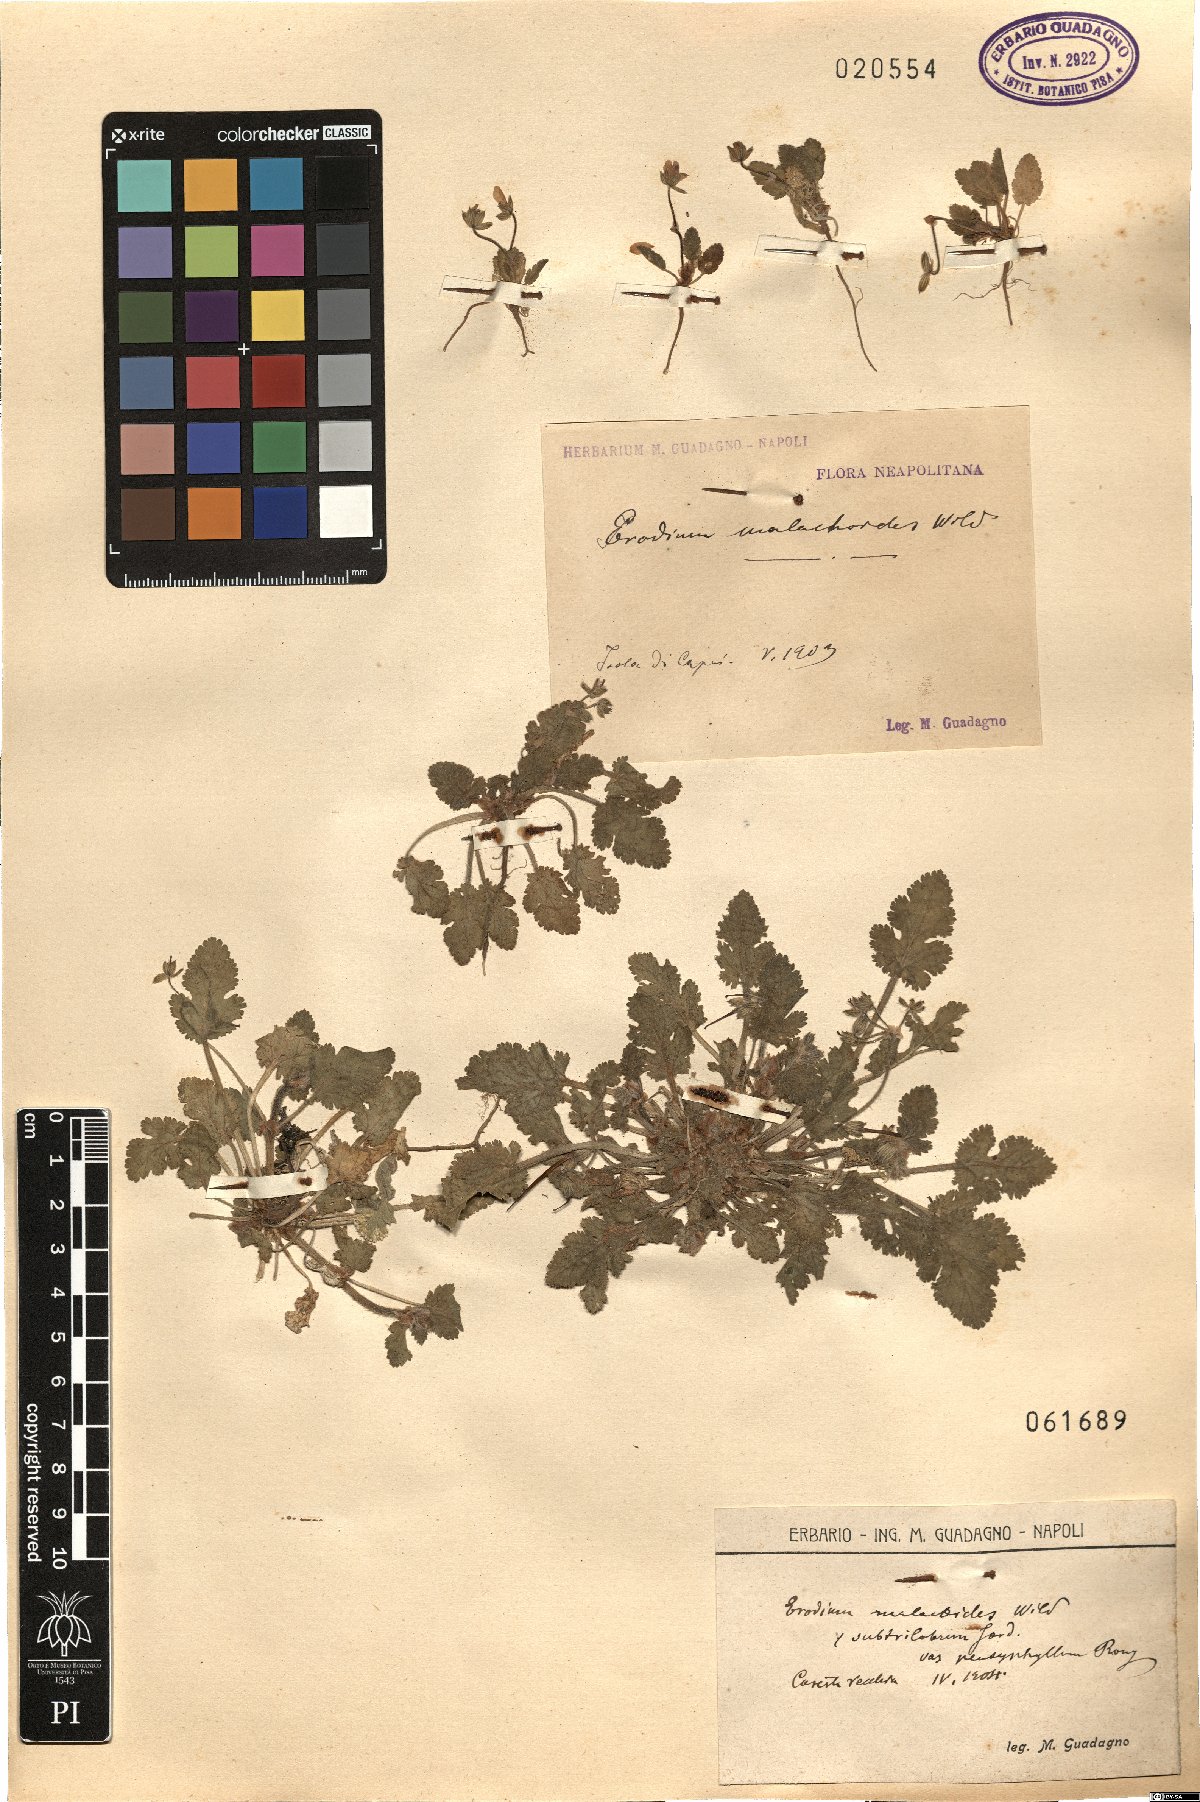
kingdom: Plantae
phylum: Tracheophyta
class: Magnoliopsida
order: Geraniales
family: Geraniaceae
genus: Erodium
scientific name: Erodium malacoides
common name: Soft stork's-bill
